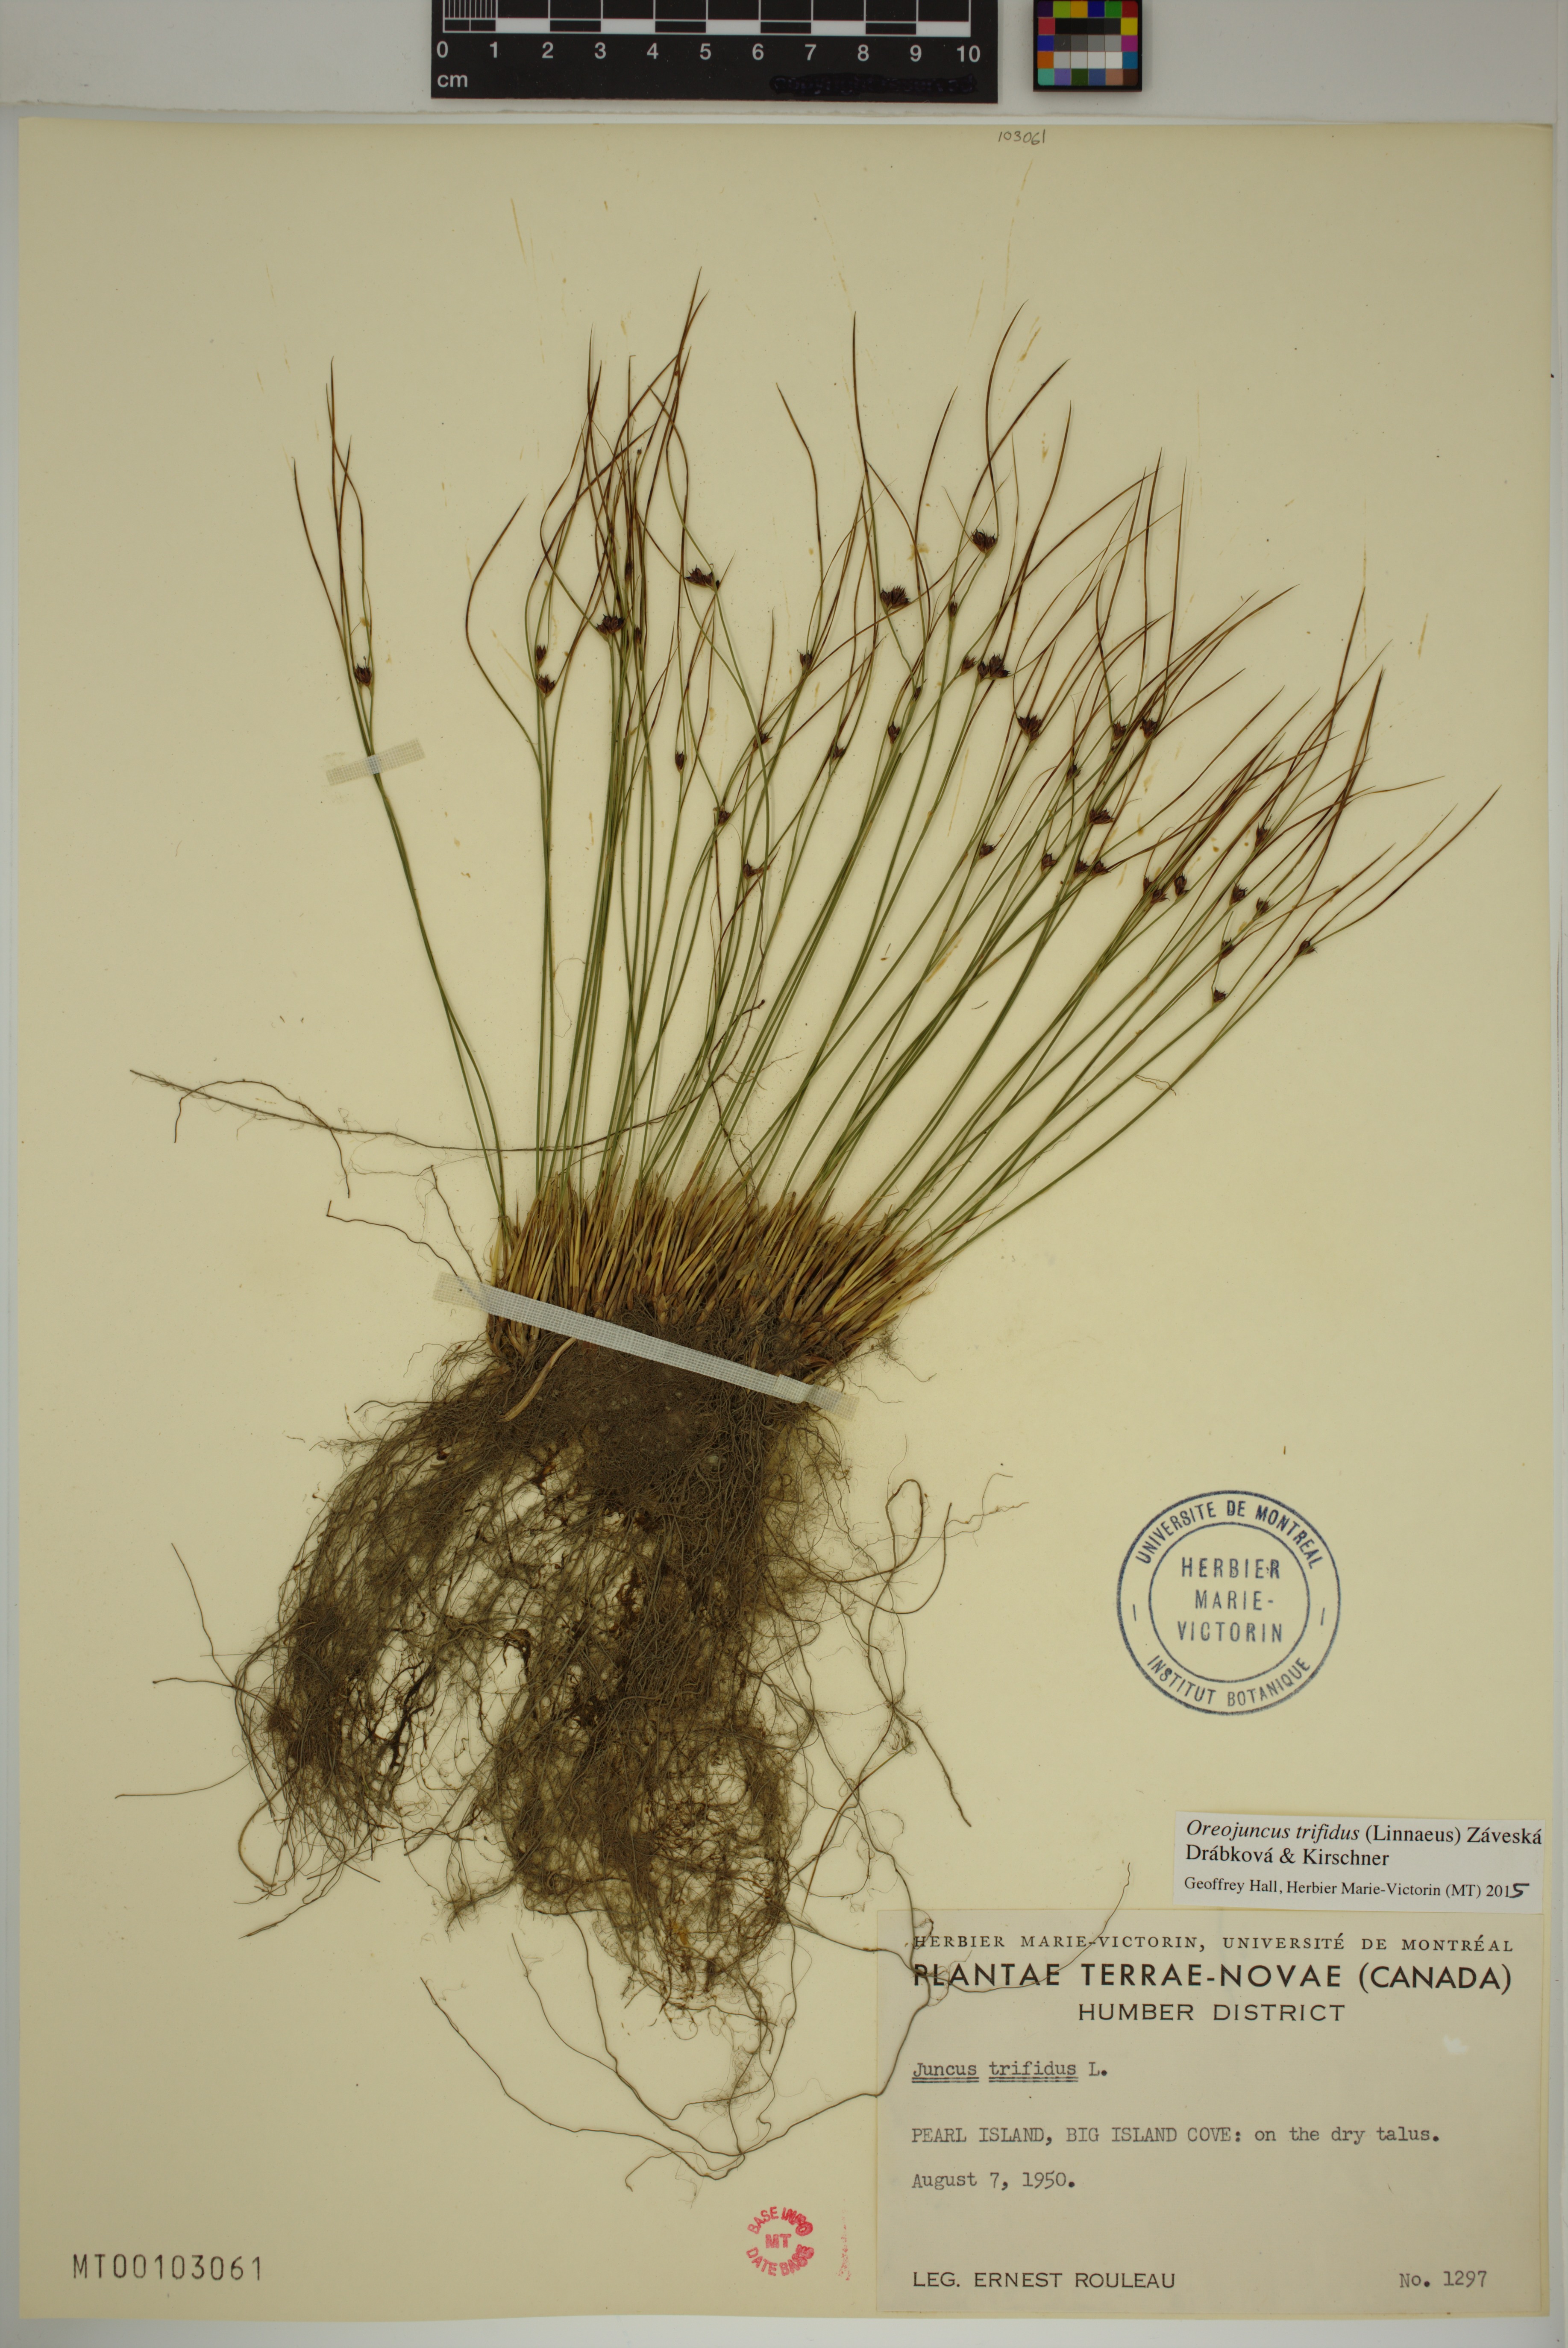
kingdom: Plantae
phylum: Tracheophyta
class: Liliopsida
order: Poales
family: Juncaceae
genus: Oreojuncus
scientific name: Oreojuncus trifidus
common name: Highland rush
